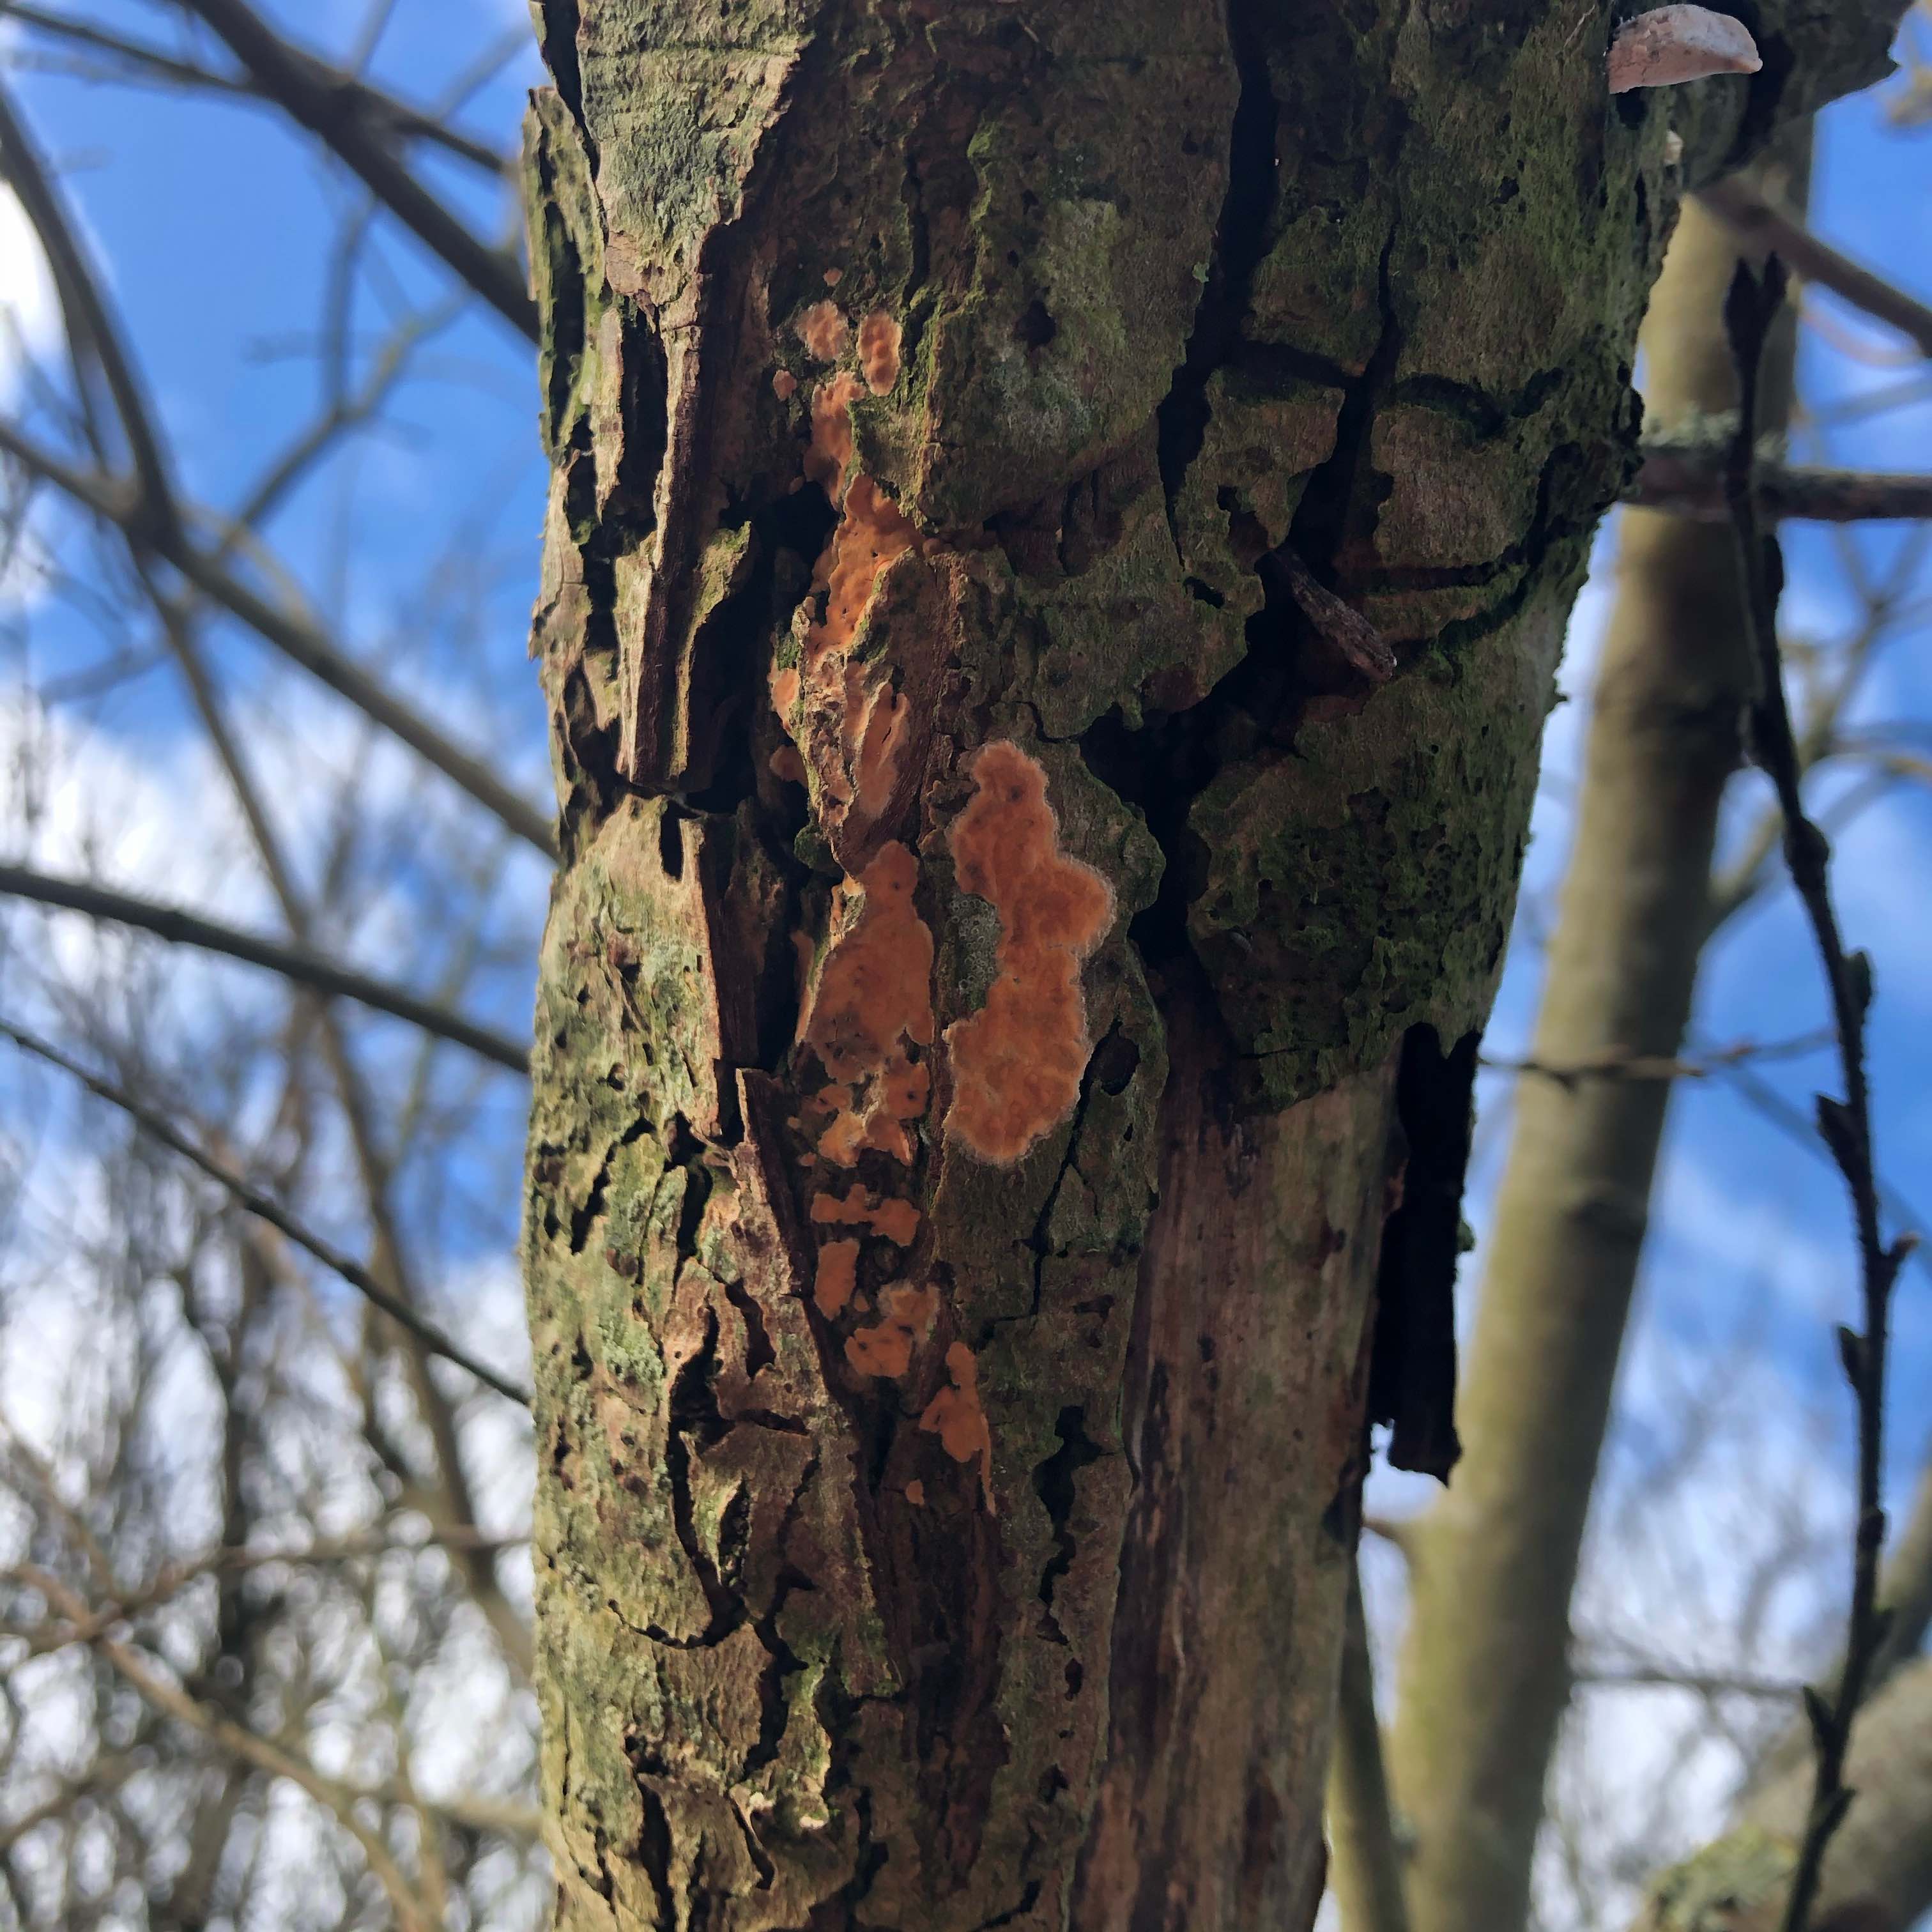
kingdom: Fungi
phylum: Basidiomycota
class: Agaricomycetes
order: Russulales
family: Peniophoraceae
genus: Peniophora
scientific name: Peniophora incarnata
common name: laksefarvet voksskind
